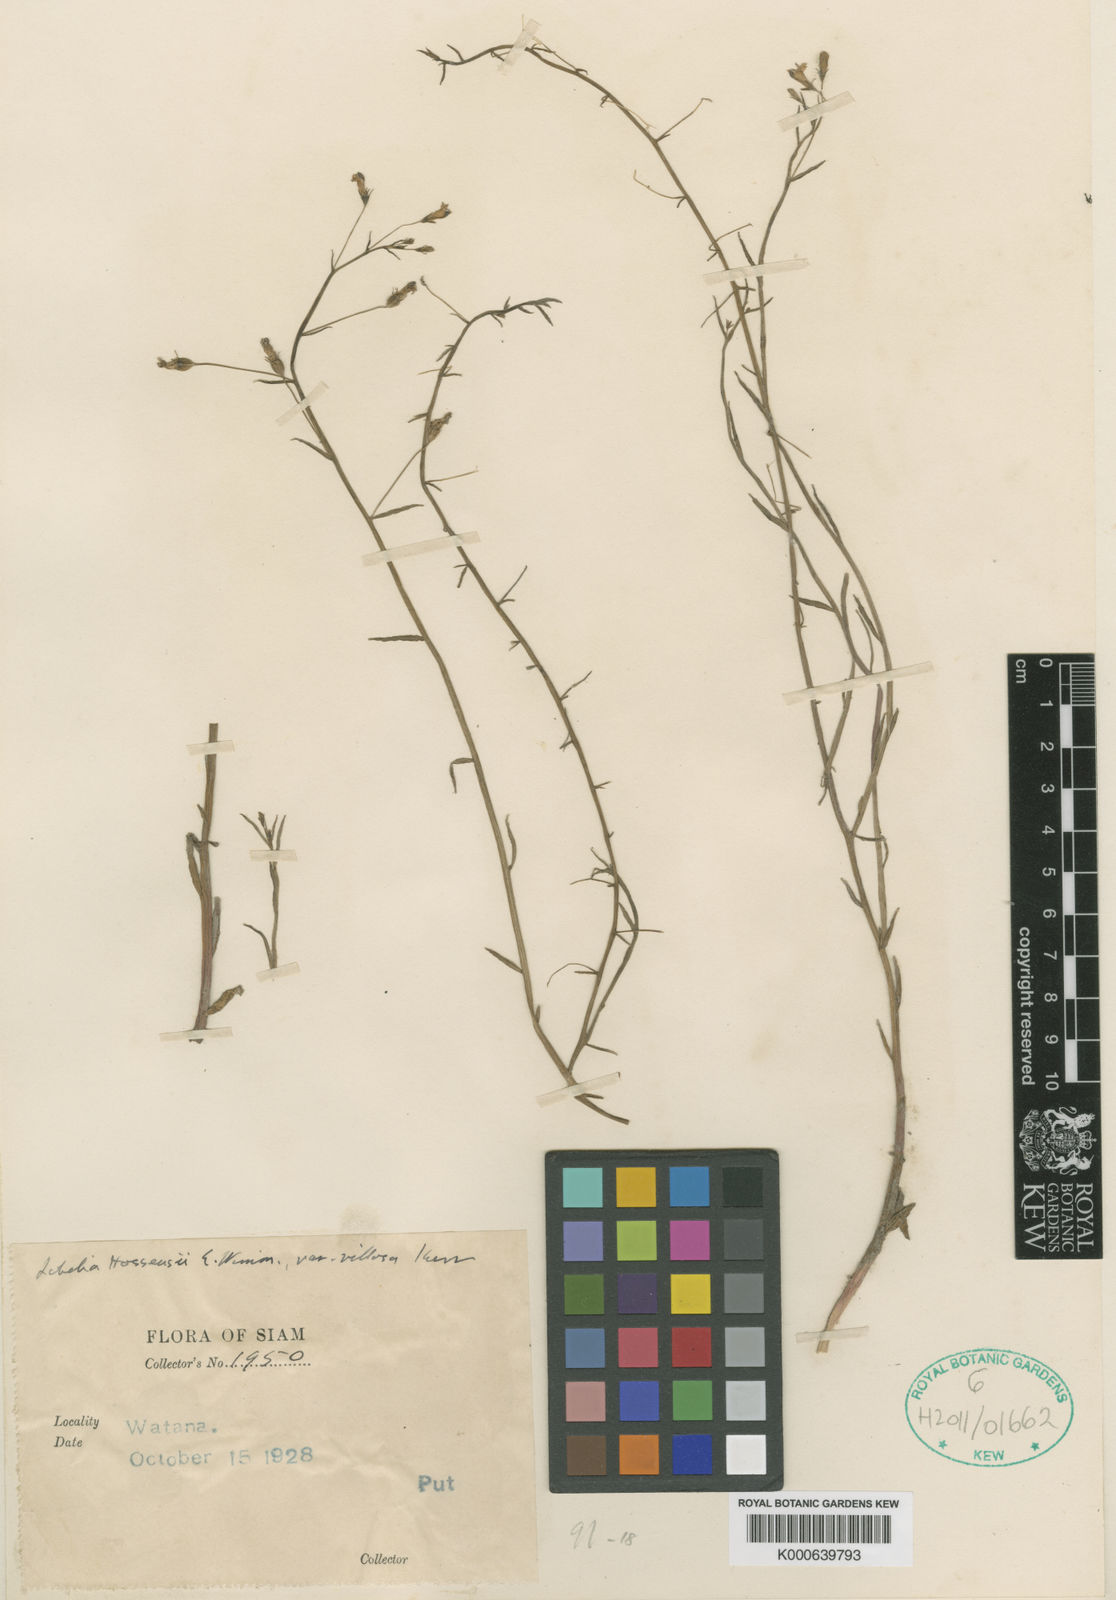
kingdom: Plantae
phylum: Tracheophyta
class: Magnoliopsida
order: Asterales
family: Campanulaceae
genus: Lobelia
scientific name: Lobelia dopatrioides
